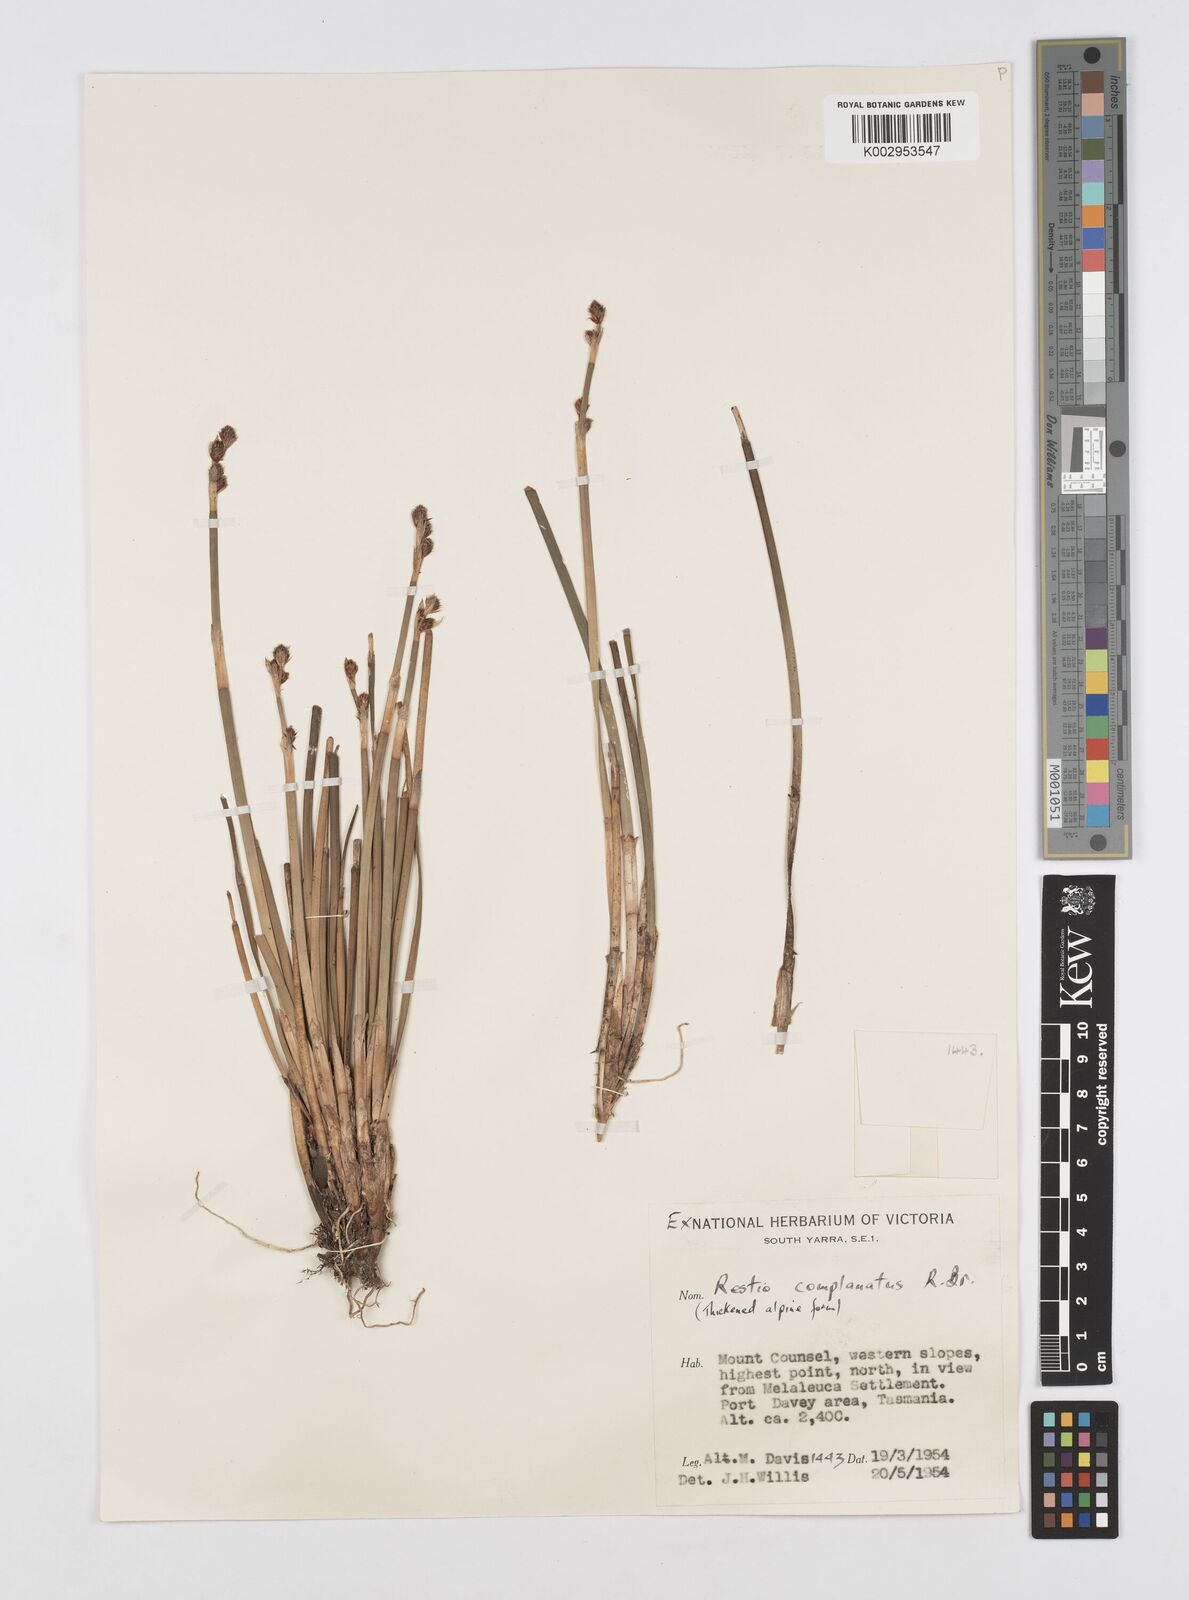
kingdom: Plantae
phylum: Tracheophyta
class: Liliopsida
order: Poales
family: Restionaceae
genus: Eurychorda
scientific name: Eurychorda complanata
